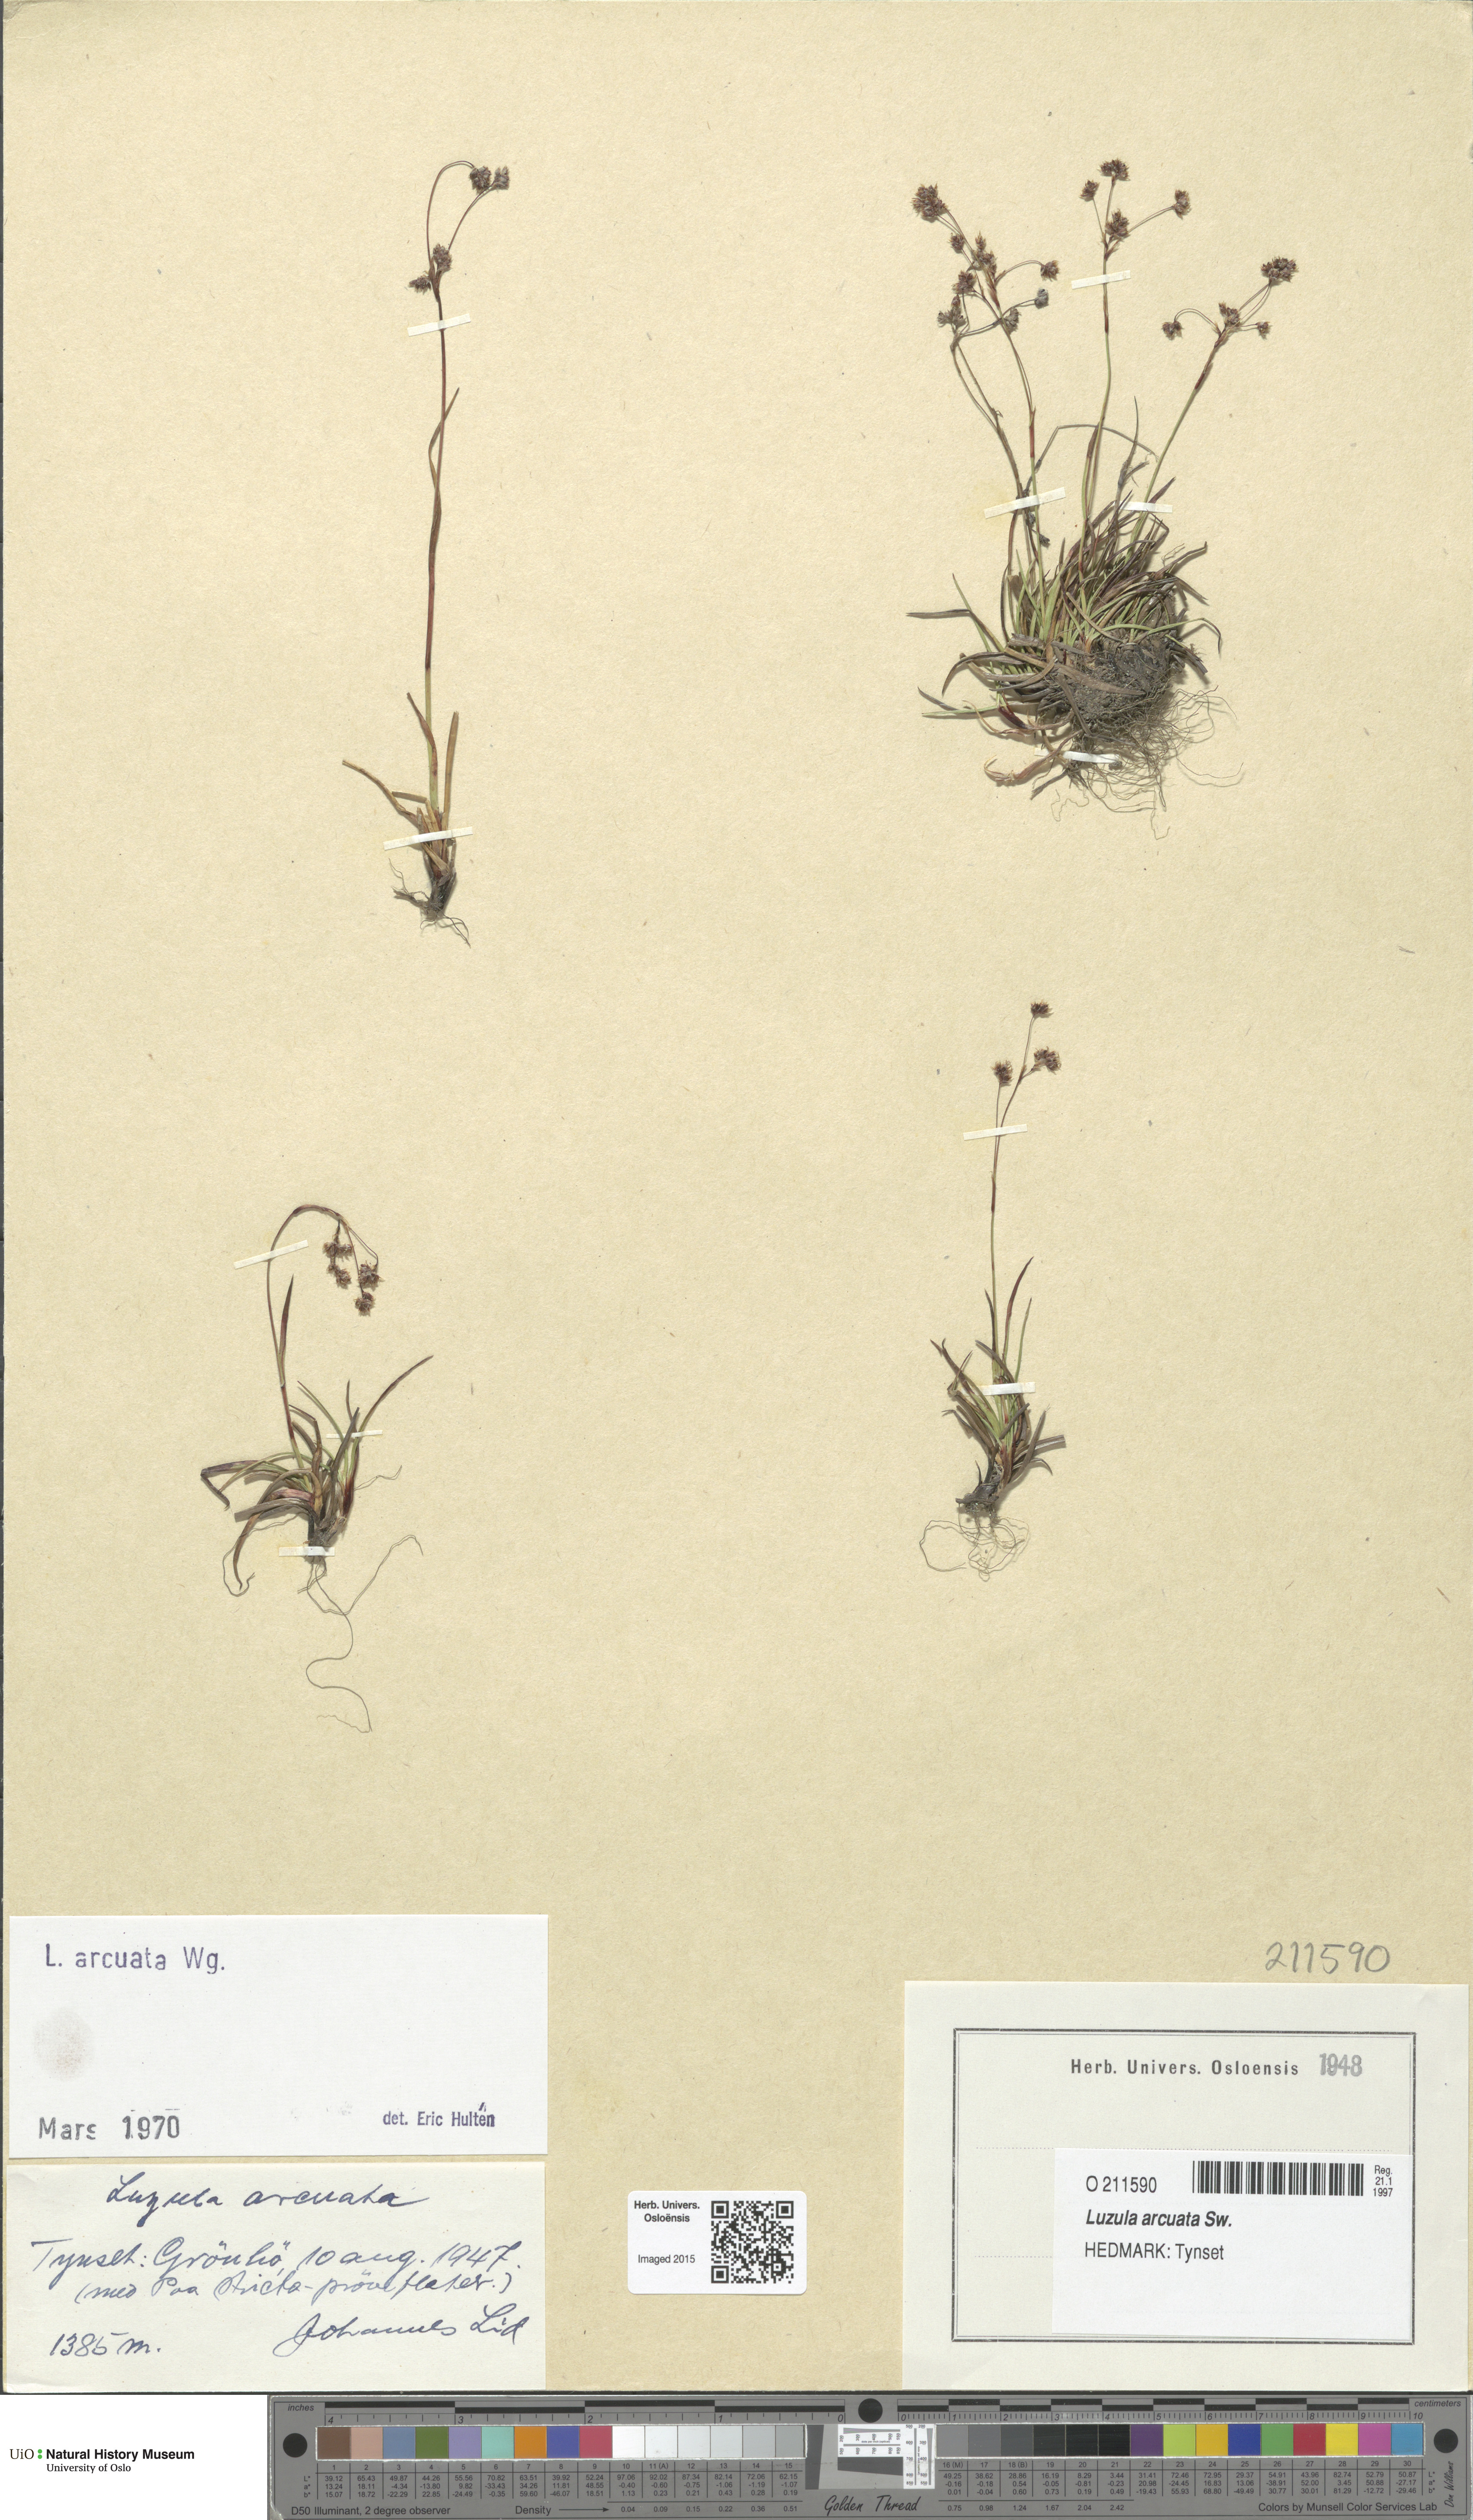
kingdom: Plantae
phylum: Tracheophyta
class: Liliopsida
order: Poales
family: Juncaceae
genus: Luzula
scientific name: Luzula arcuata
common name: Curved wood-rush
